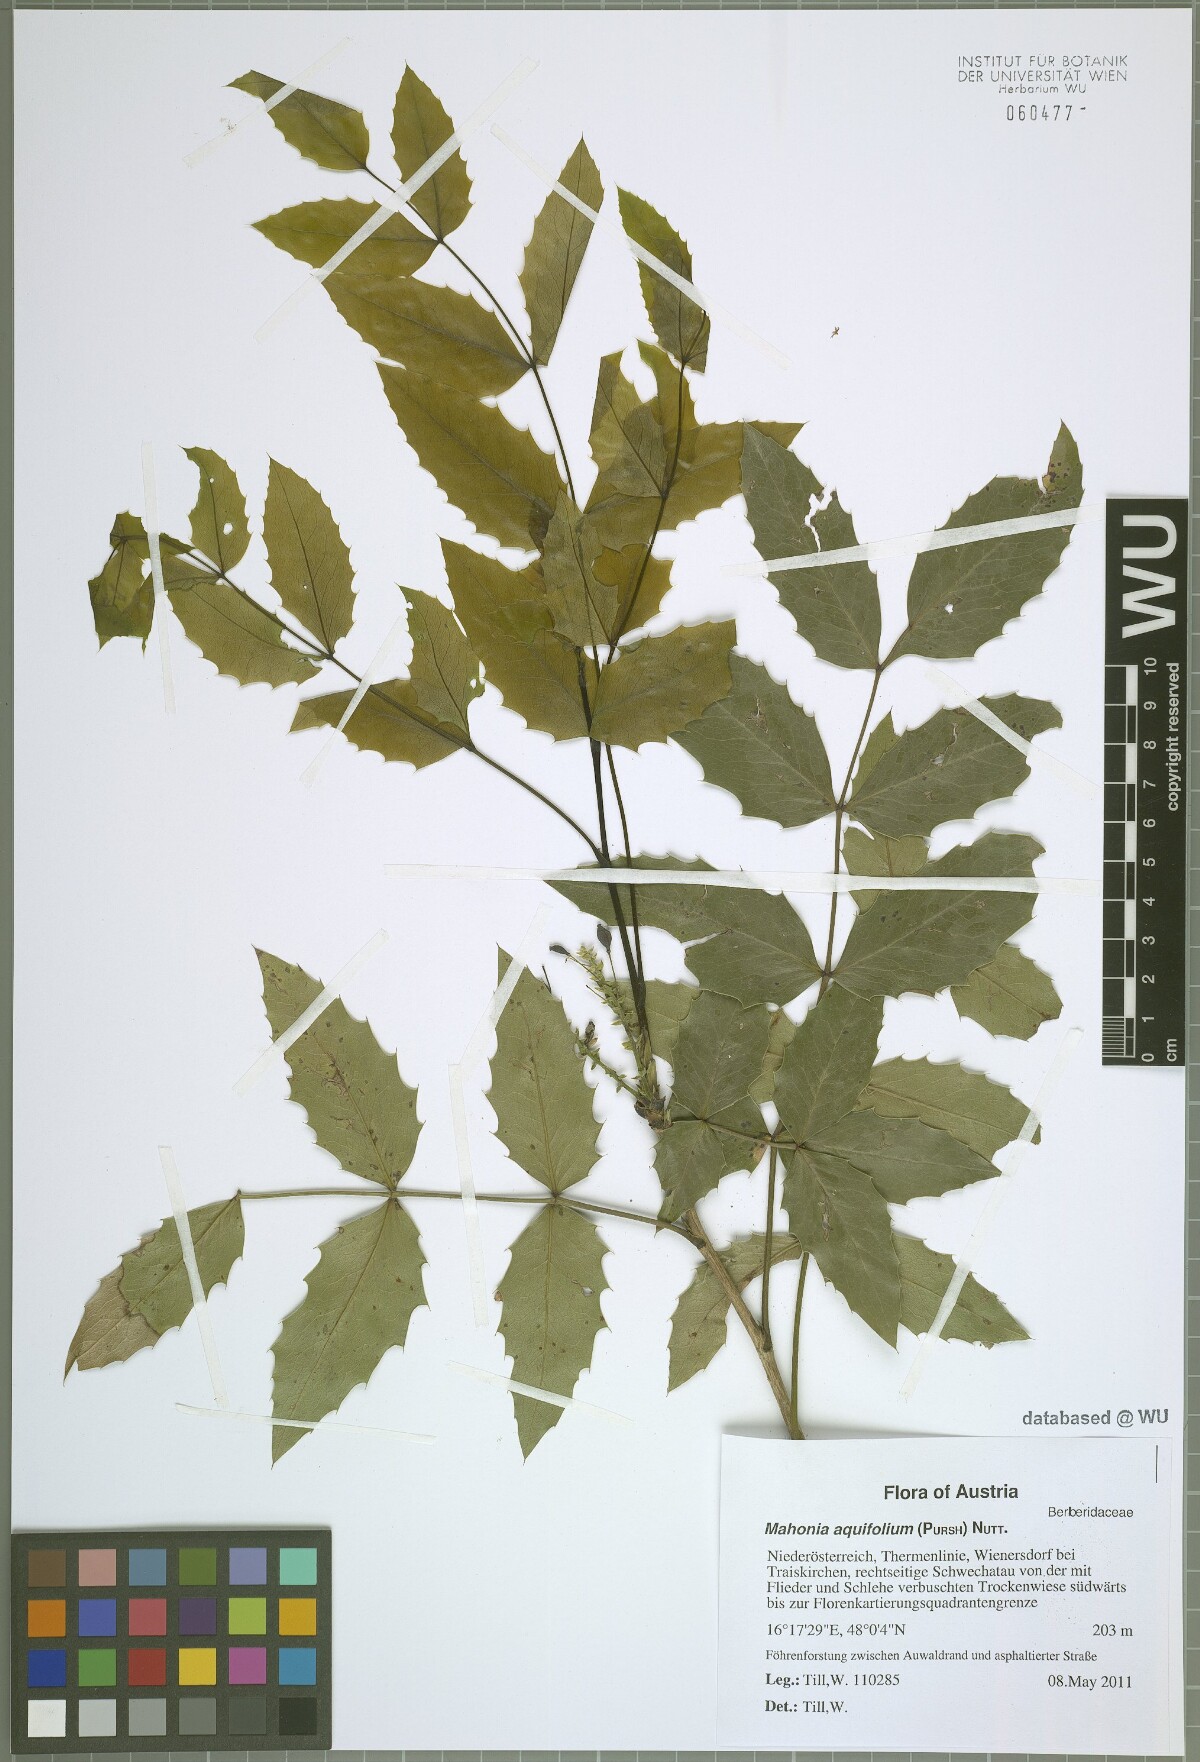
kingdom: Plantae
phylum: Tracheophyta
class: Magnoliopsida
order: Ranunculales
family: Berberidaceae
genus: Mahonia
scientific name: Mahonia aquifolium
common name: Oregon-grape
